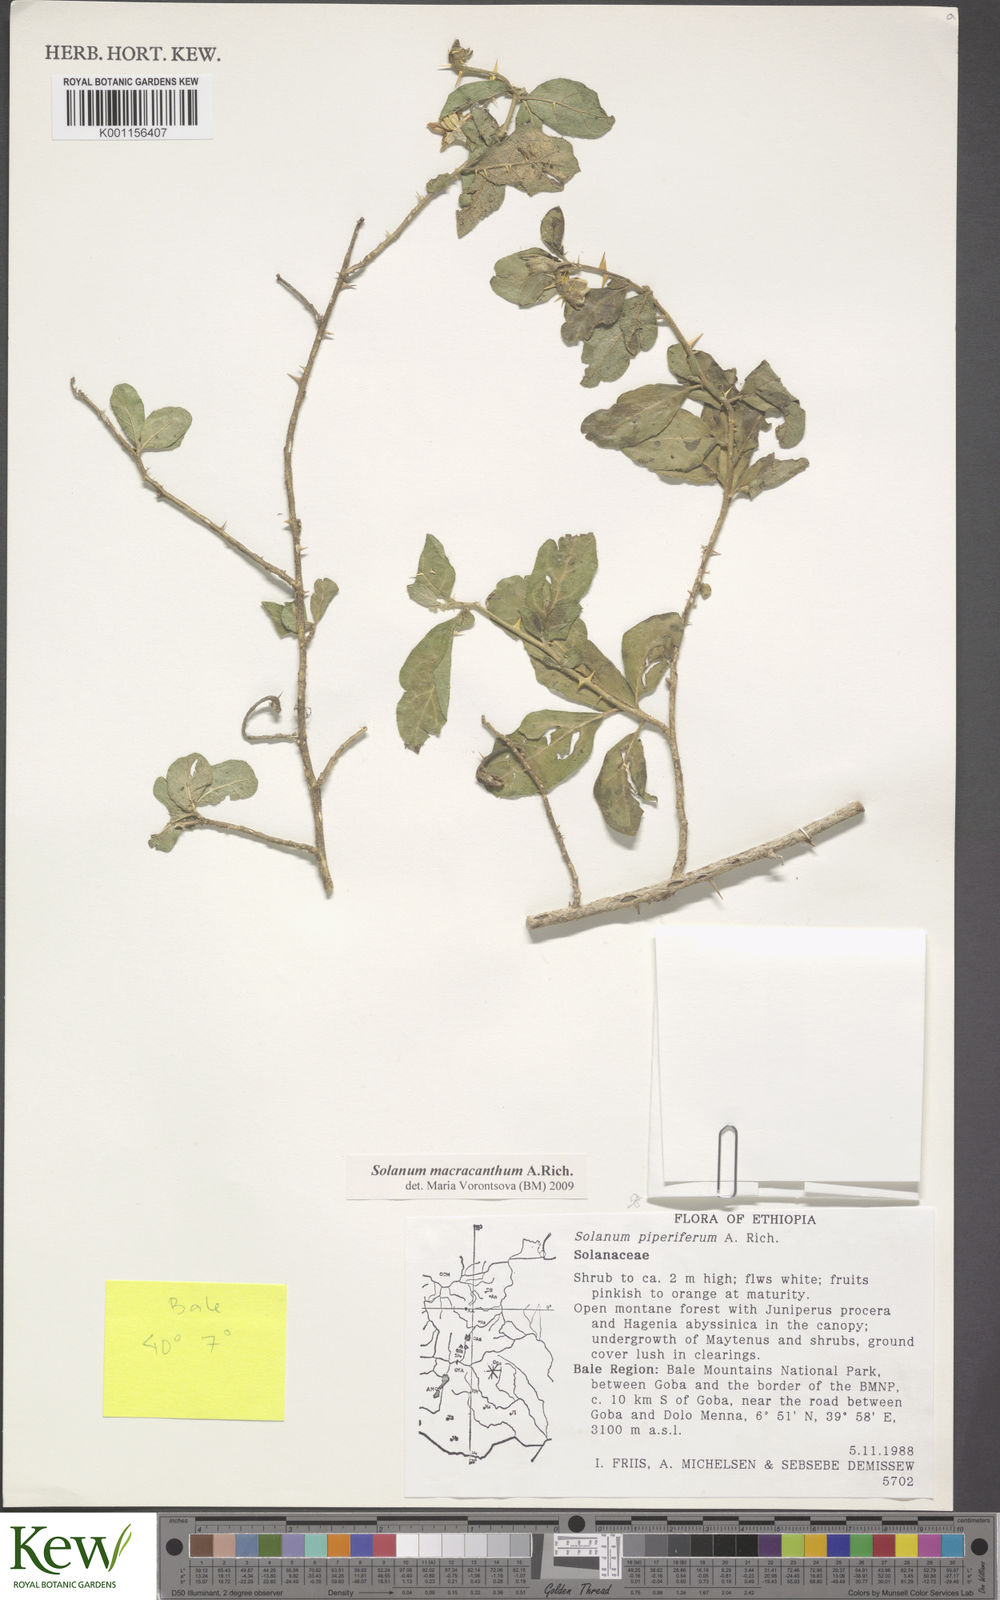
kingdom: Plantae
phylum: Tracheophyta
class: Magnoliopsida
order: Solanales
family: Solanaceae
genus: Solanum
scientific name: Solanum macracanthum
